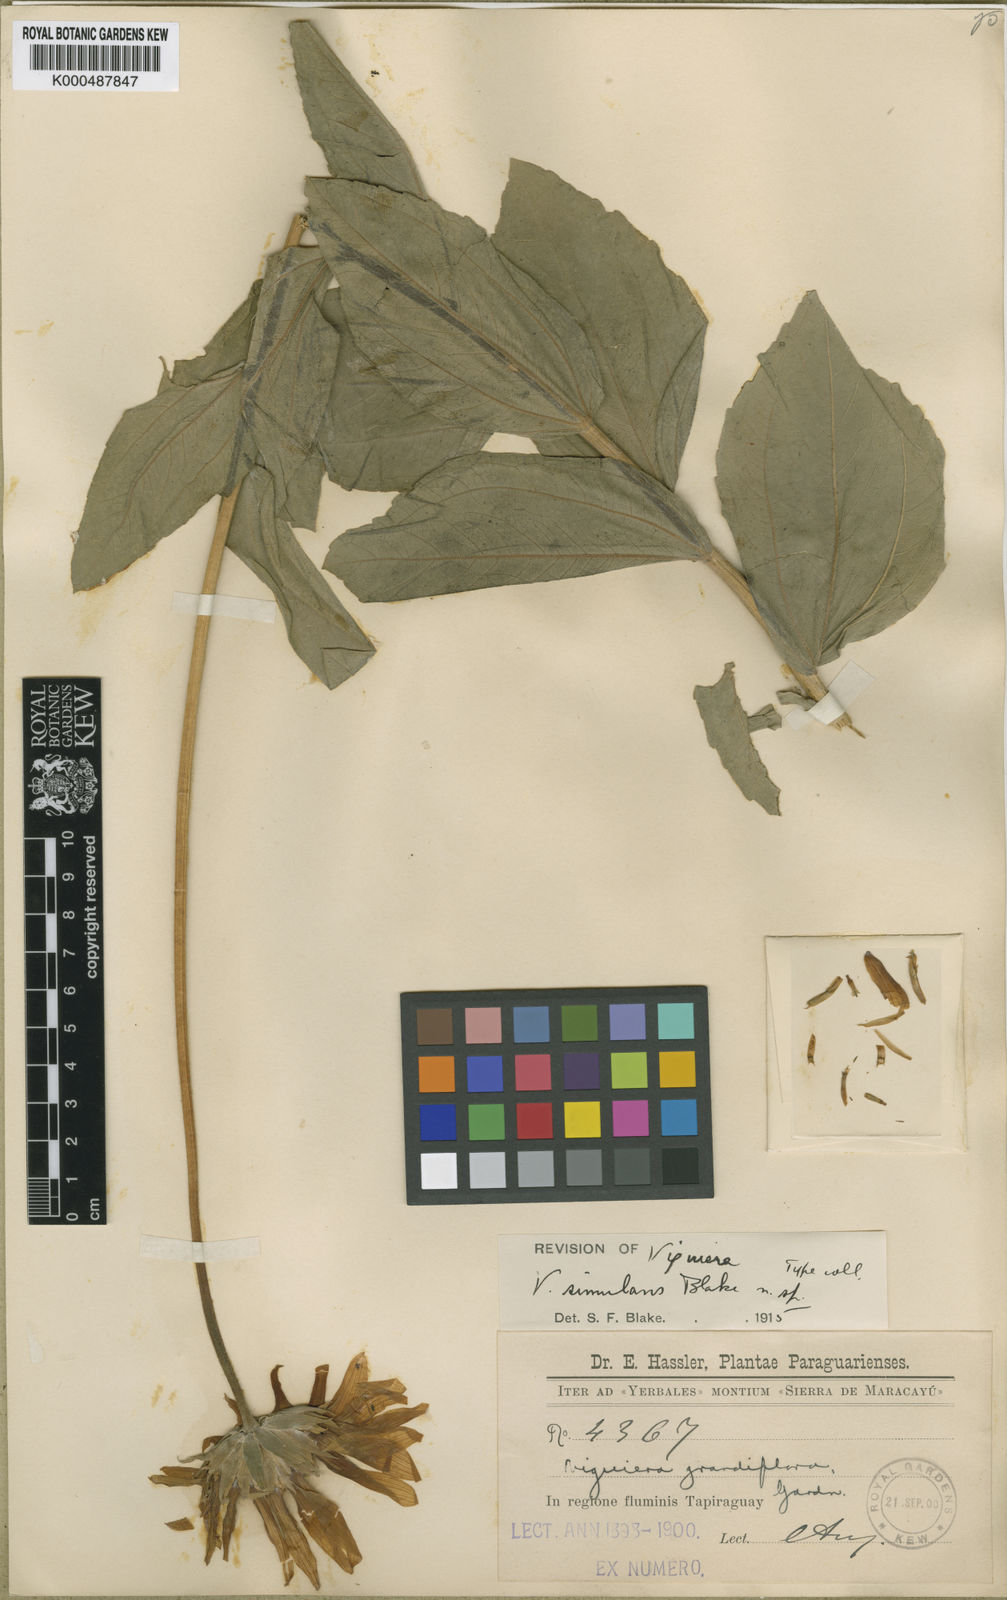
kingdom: Plantae
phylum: Tracheophyta
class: Magnoliopsida
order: Asterales
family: Asteraceae
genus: Viguiera
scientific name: Viguiera simulans
